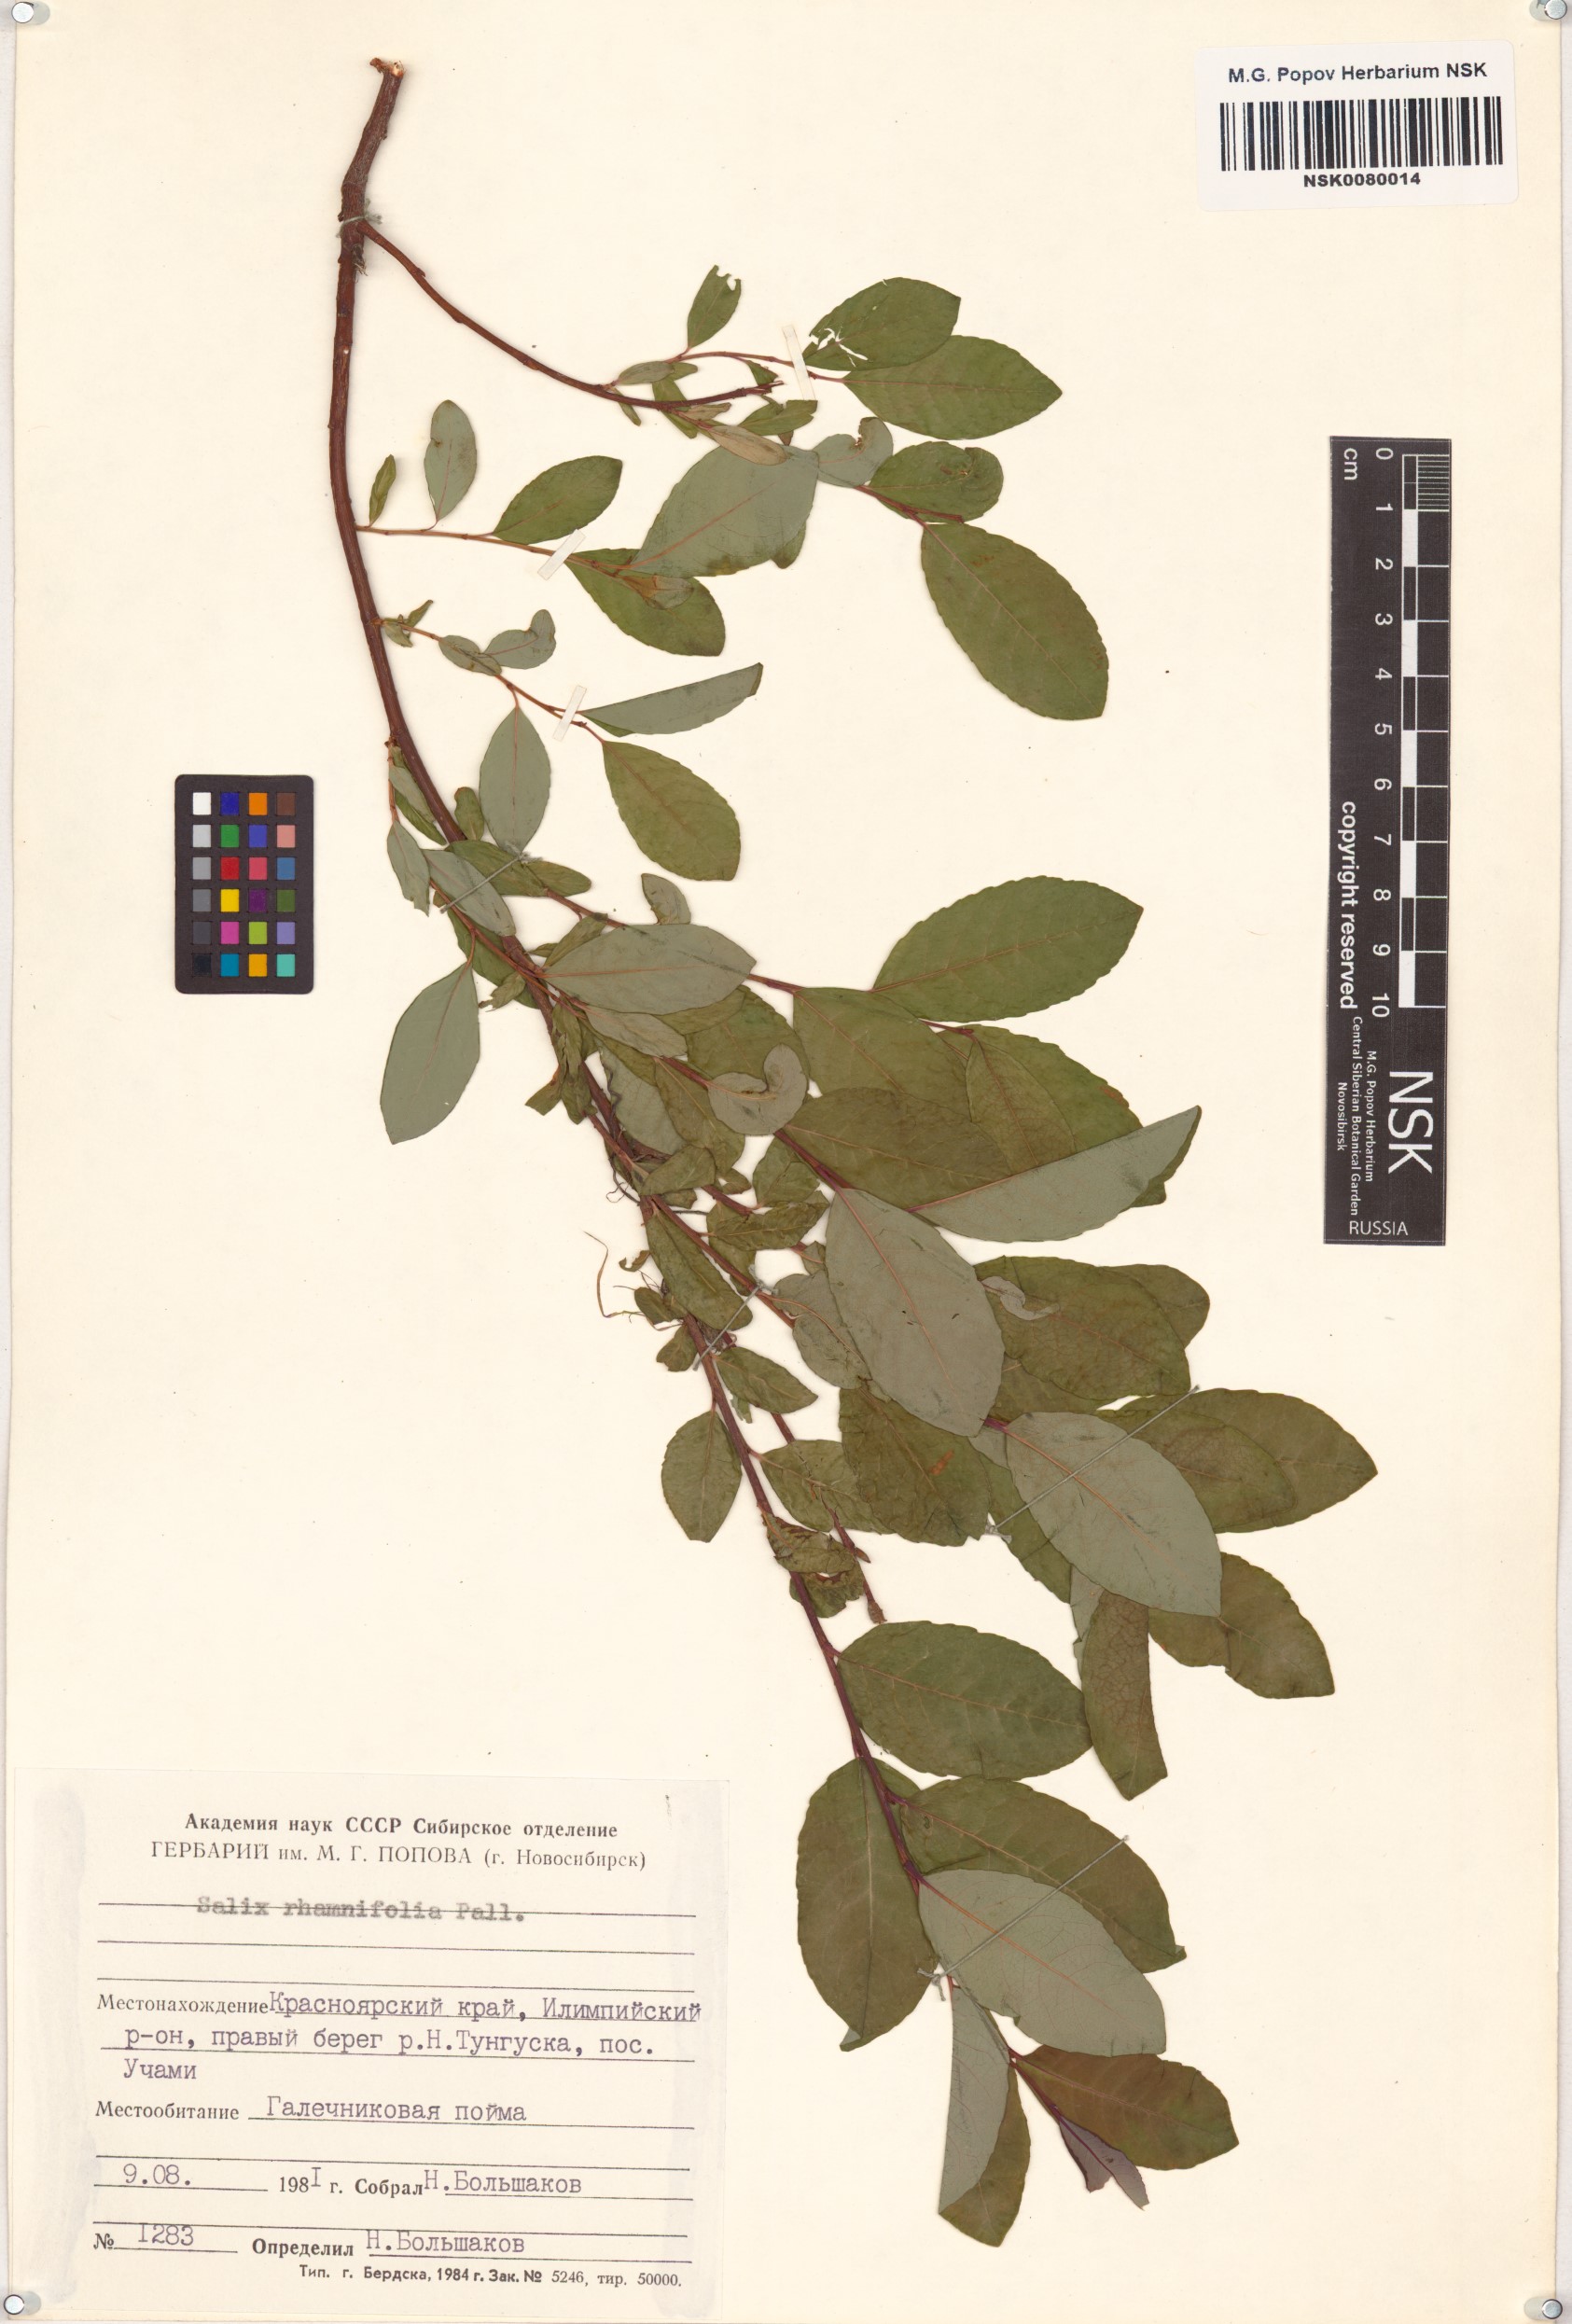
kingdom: Plantae
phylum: Tracheophyta
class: Magnoliopsida
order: Malpighiales
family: Salicaceae
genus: Salix
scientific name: Salix rhamnifolia
